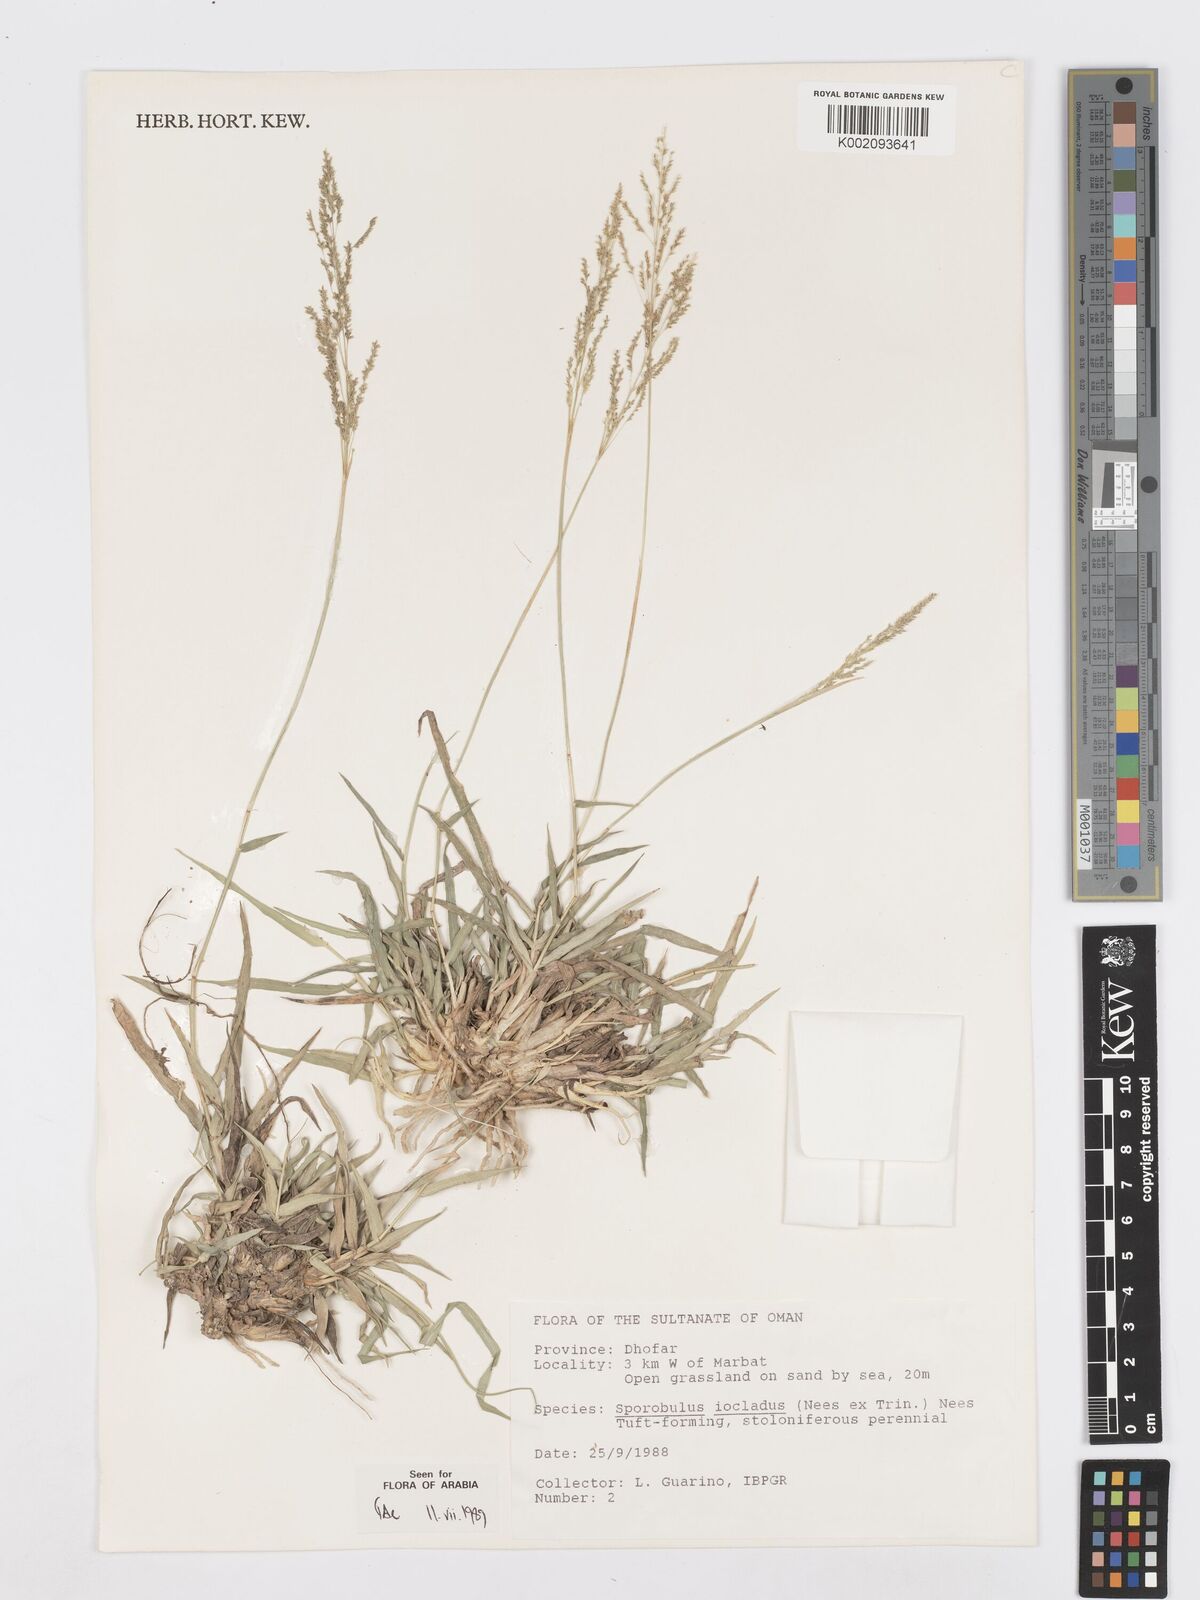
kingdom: Plantae
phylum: Tracheophyta
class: Liliopsida
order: Poales
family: Poaceae
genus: Sporobolus
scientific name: Sporobolus ioclados
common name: Pan dropseed
